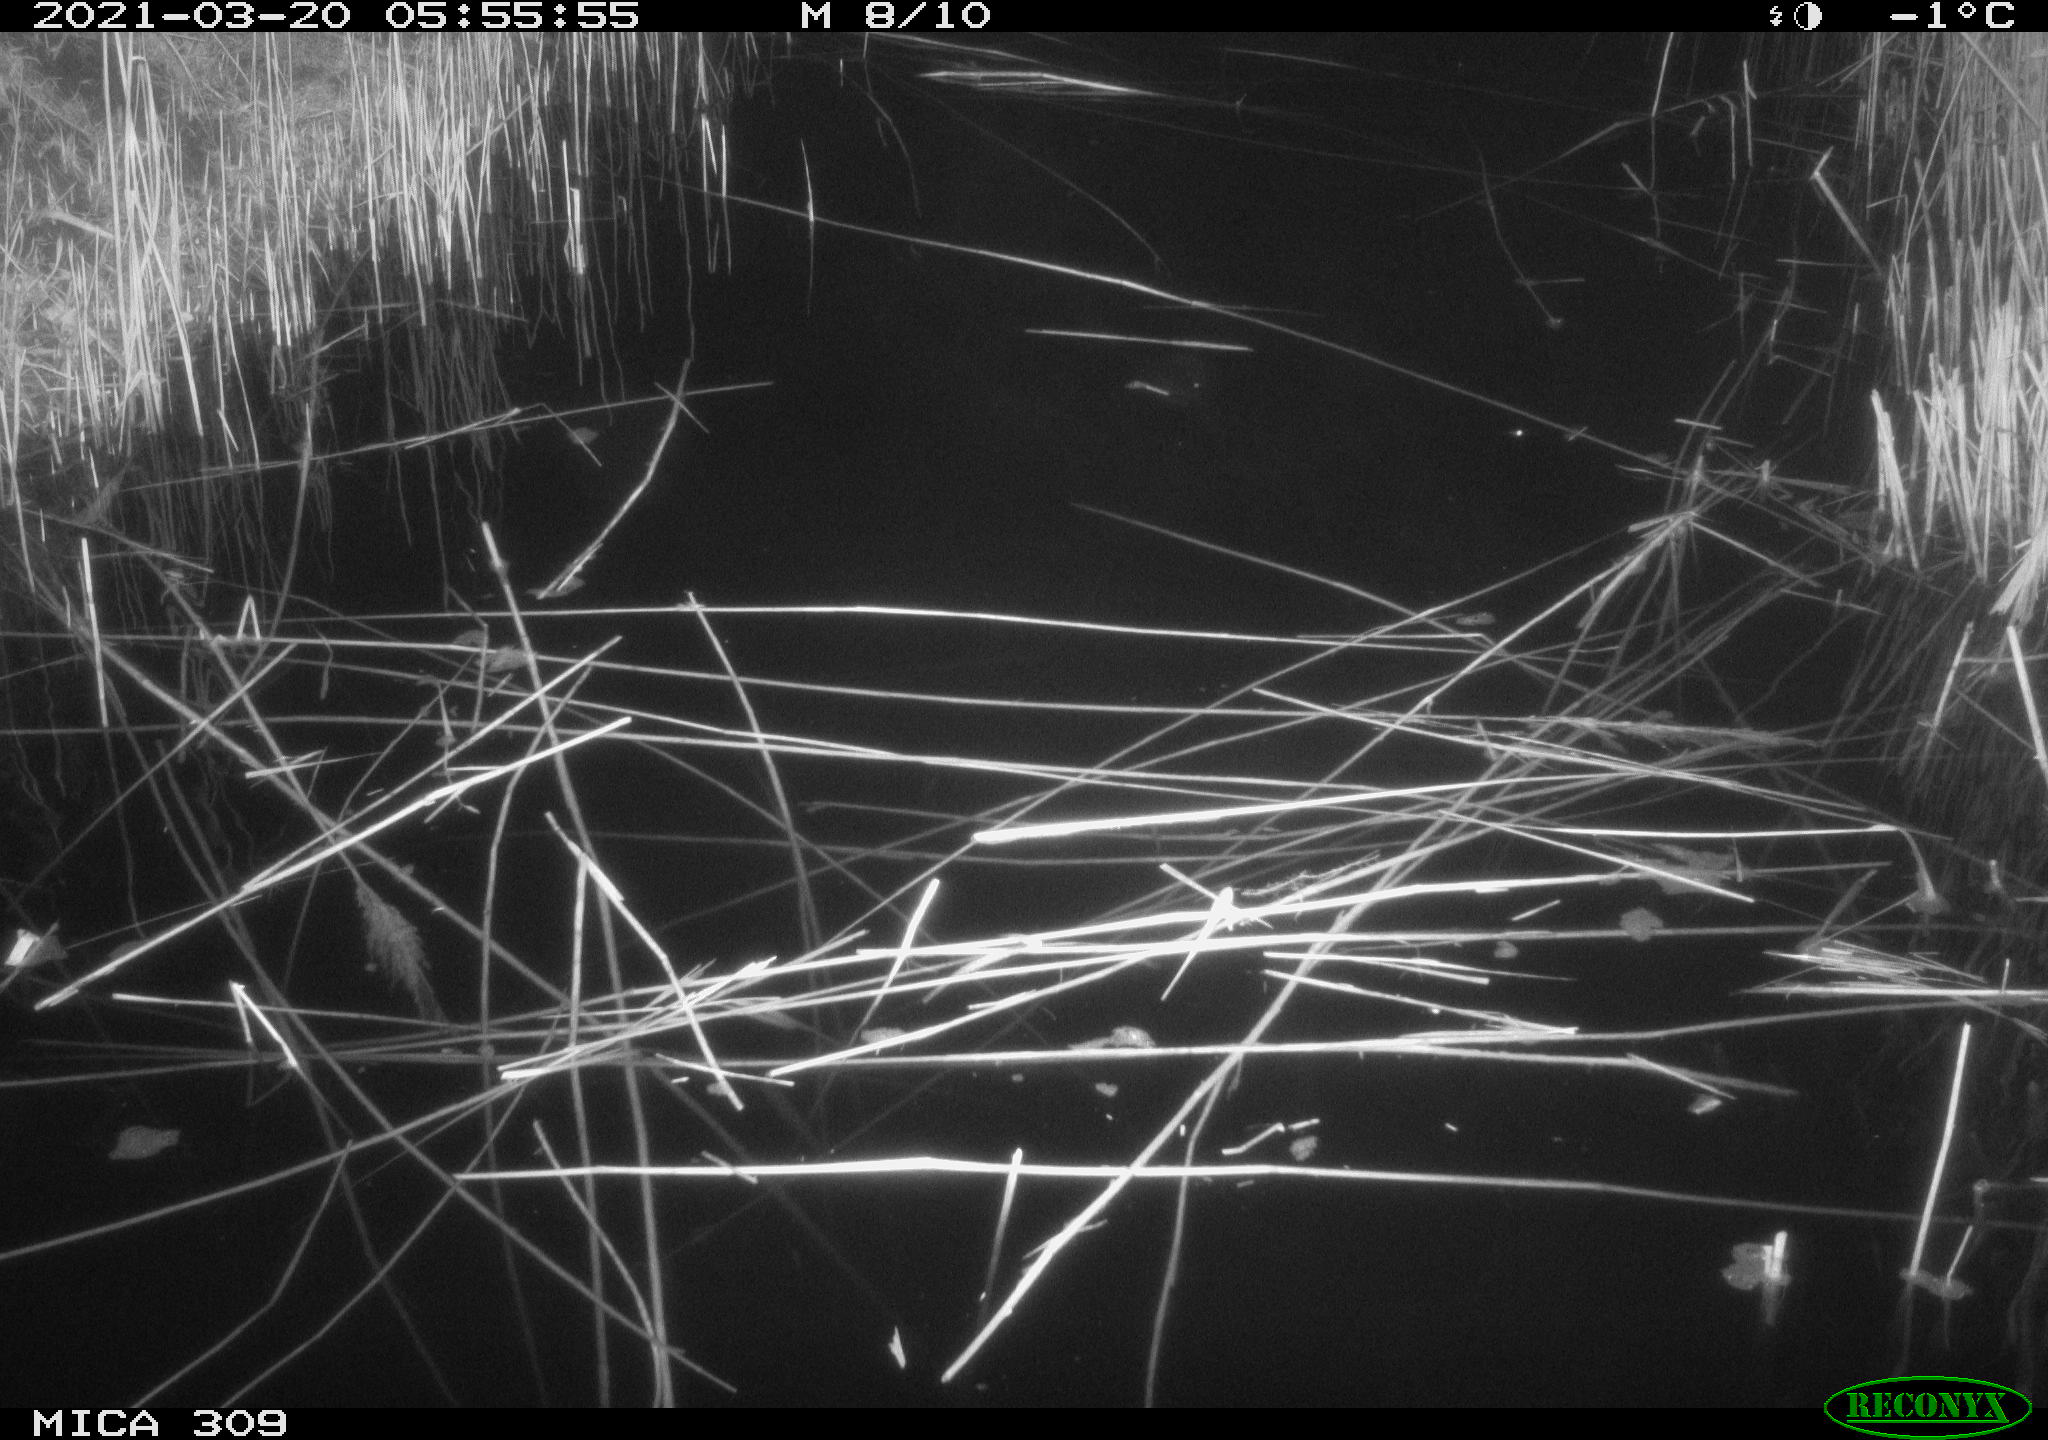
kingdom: Animalia
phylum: Chordata
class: Aves
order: Anseriformes
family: Anatidae
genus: Anas
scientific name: Anas platyrhynchos
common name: Mallard
